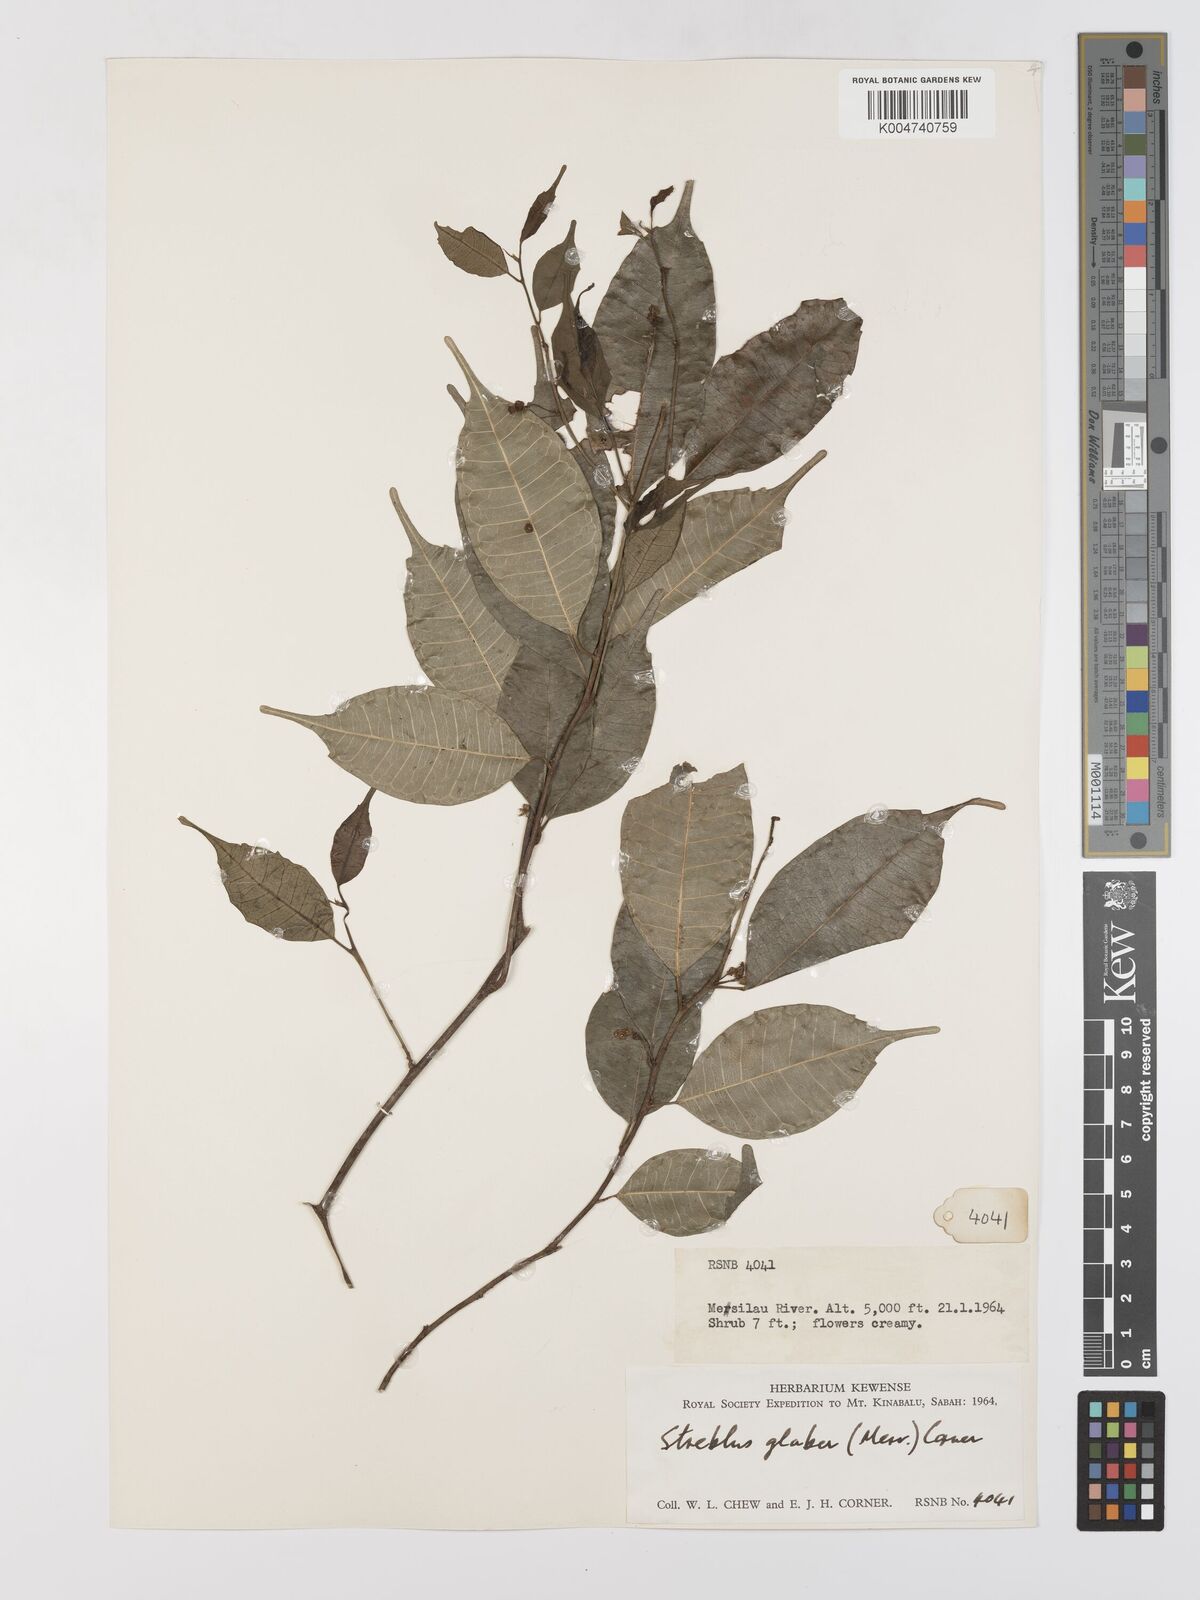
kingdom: Plantae
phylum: Tracheophyta
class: Magnoliopsida
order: Rosales
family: Moraceae
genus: Paratrophis
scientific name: Paratrophis glabra
